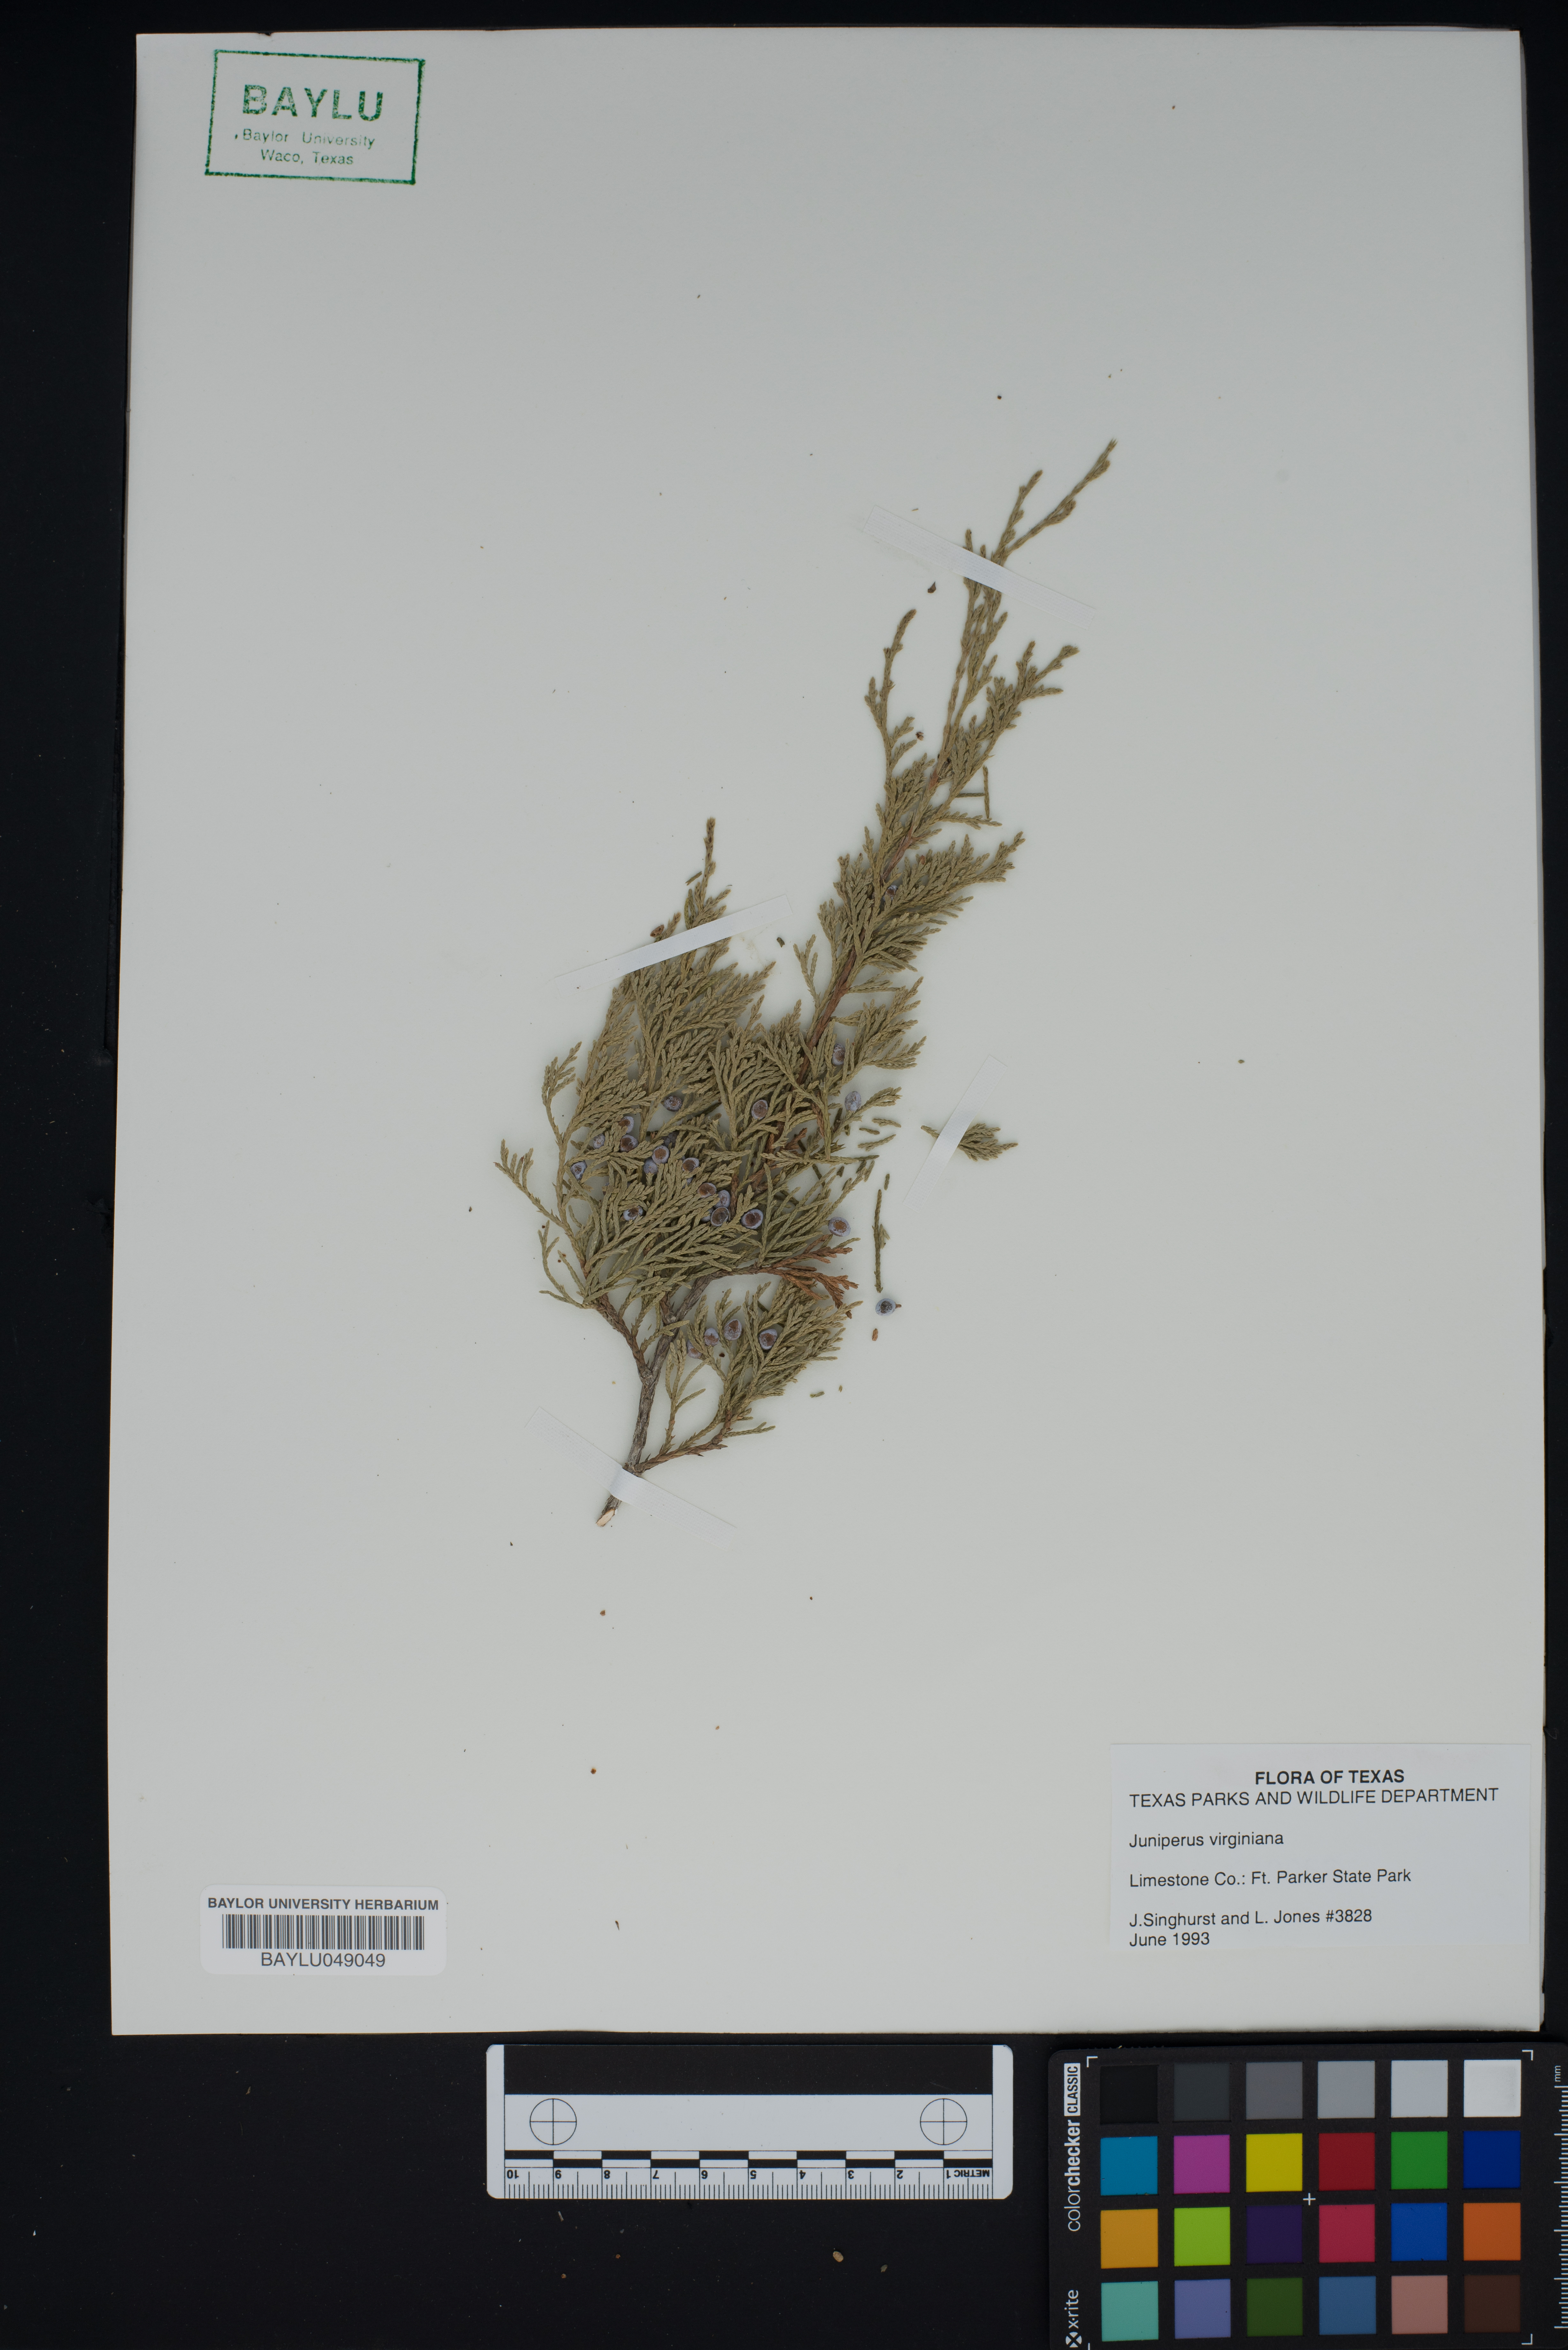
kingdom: Plantae
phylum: Tracheophyta
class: Pinopsida
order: Pinales
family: Cupressaceae
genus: Juniperus
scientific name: Juniperus virginiana
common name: Red juniper
